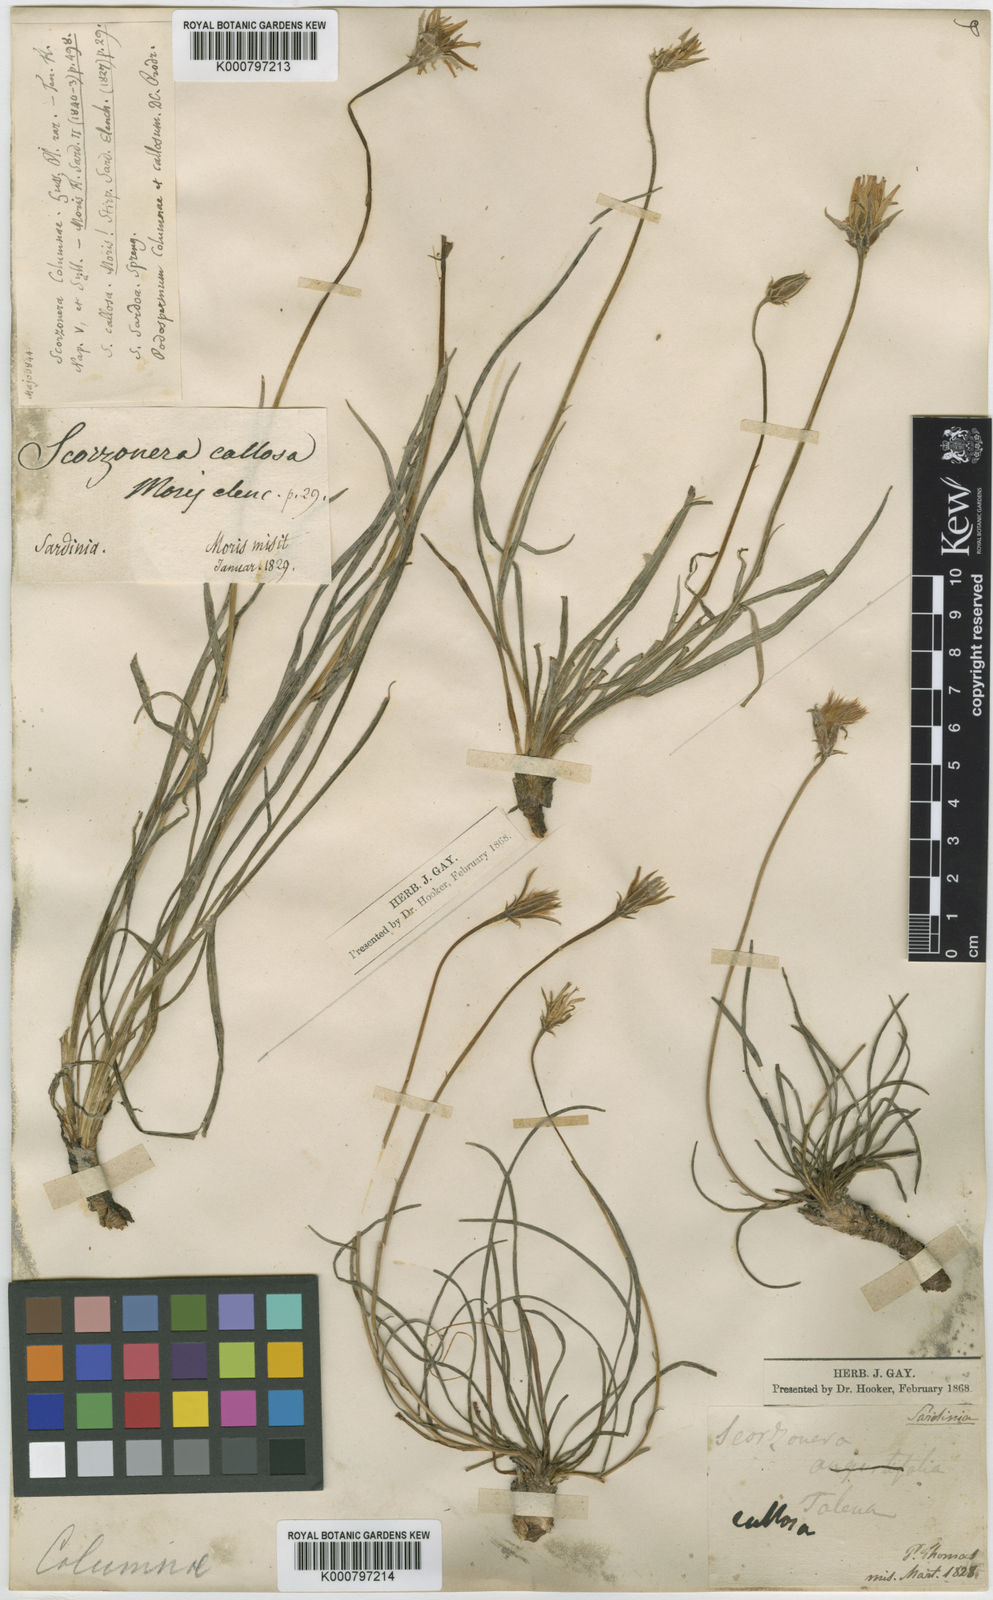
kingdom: Plantae
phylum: Tracheophyta
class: Magnoliopsida
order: Asterales
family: Asteraceae
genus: Gelasia
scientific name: Gelasia villosa
